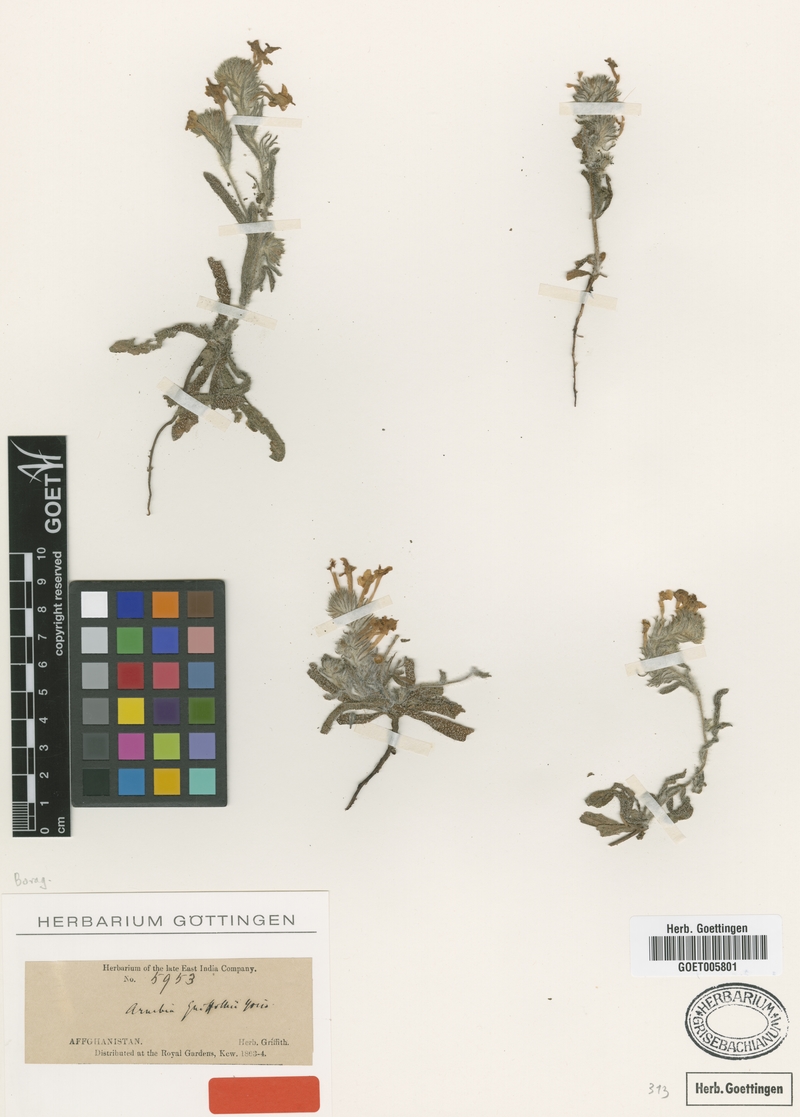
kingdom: Plantae
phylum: Tracheophyta
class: Magnoliopsida
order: Boraginales
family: Boraginaceae
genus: Arnebia
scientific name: Arnebia guttata
